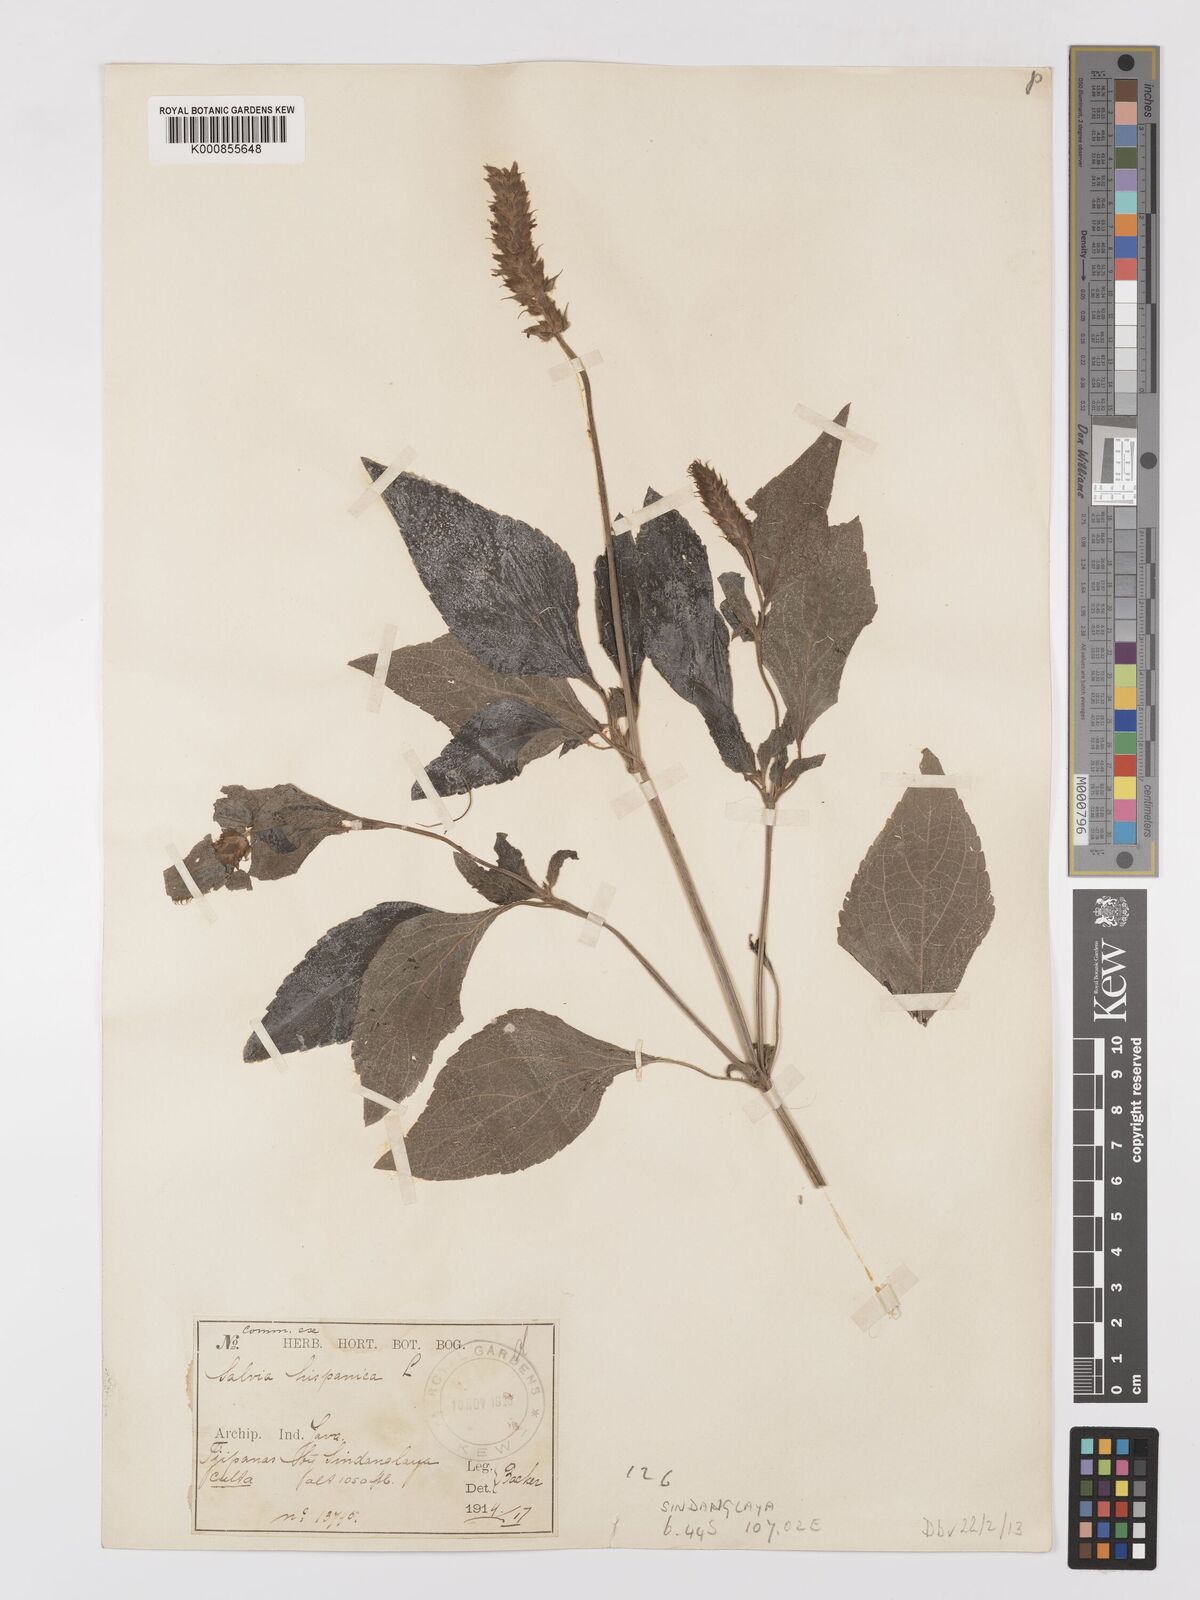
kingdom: Plantae
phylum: Tracheophyta
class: Magnoliopsida
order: Lamiales
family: Lamiaceae
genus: Salvia
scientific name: Salvia hispanica
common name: Chia
